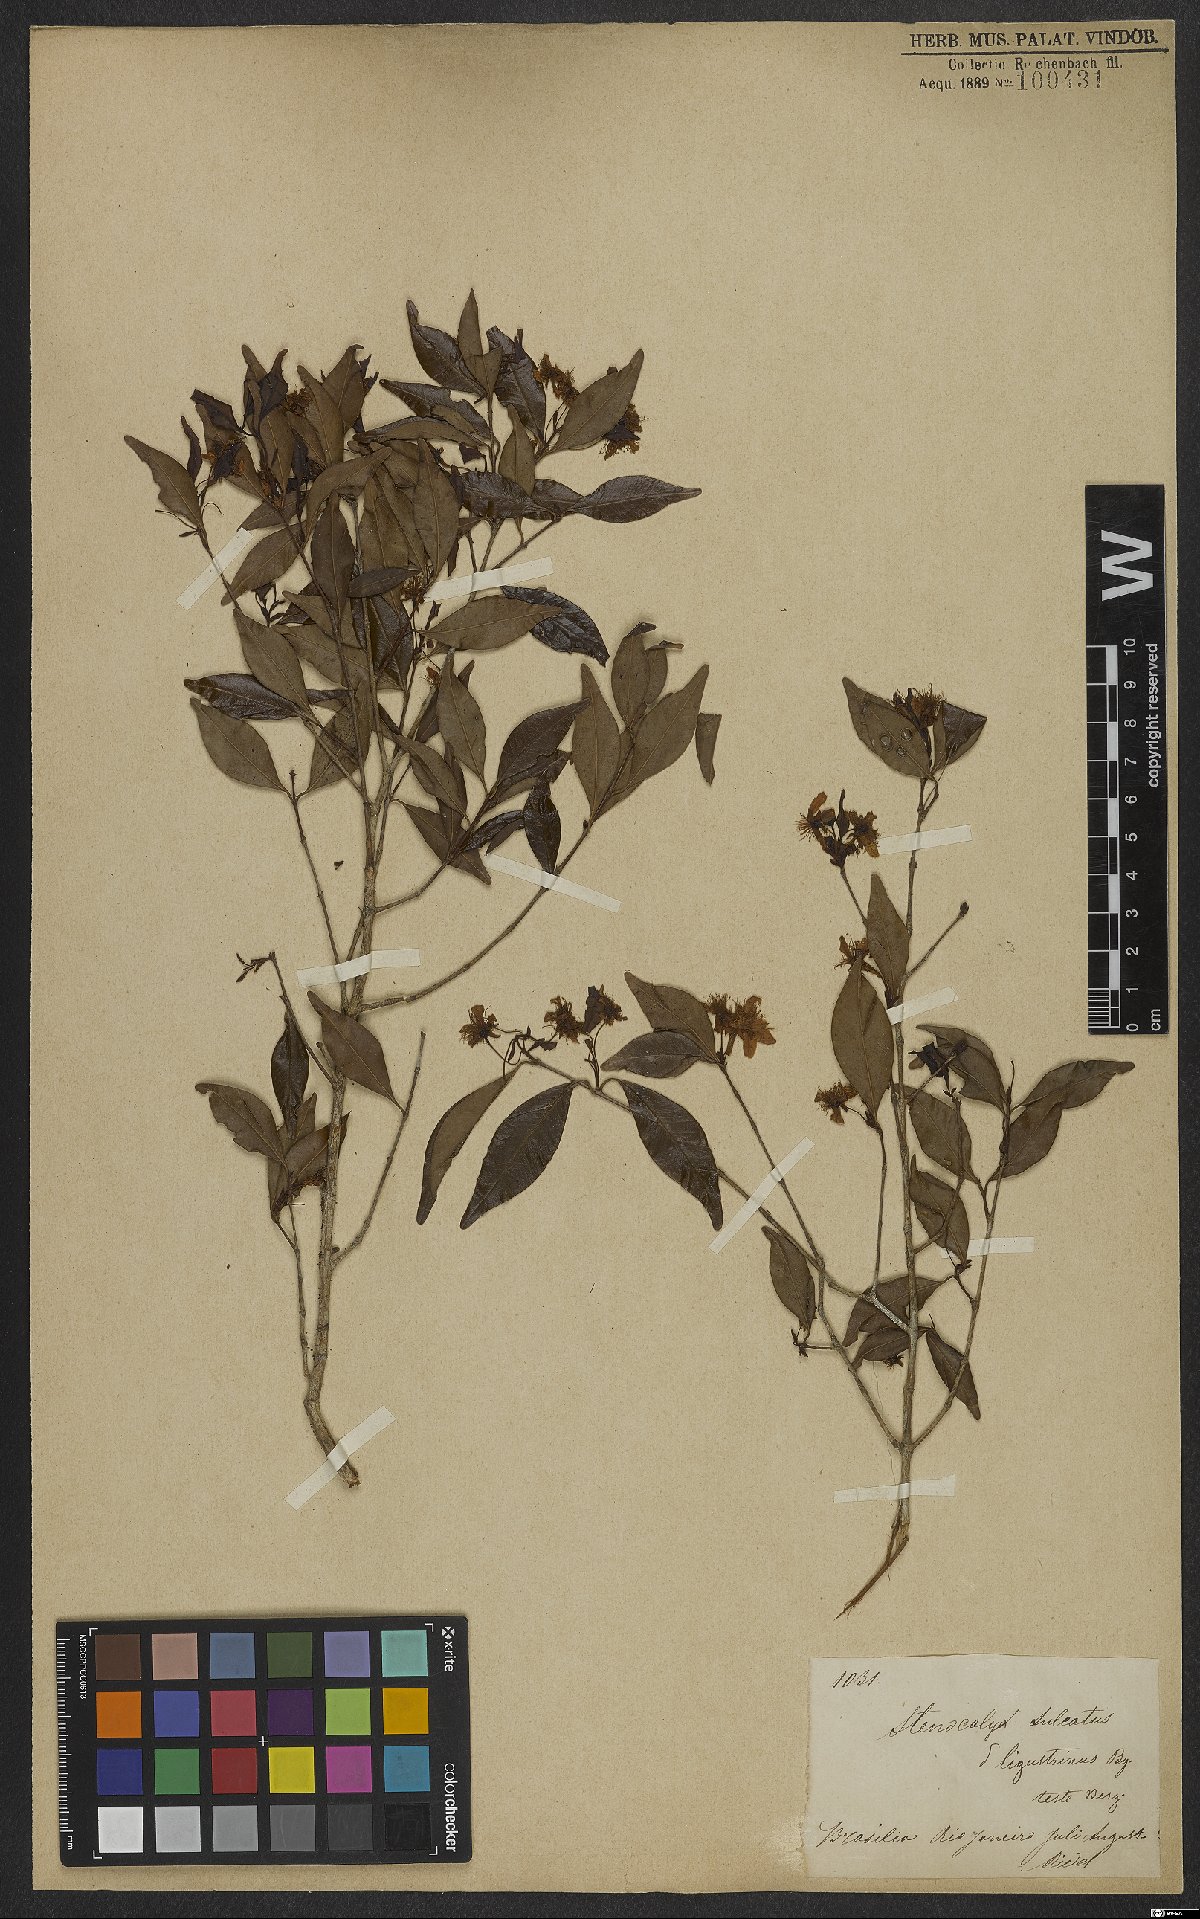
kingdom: Plantae
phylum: Tracheophyta
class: Magnoliopsida
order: Myrtales
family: Myrtaceae
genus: Eugenia
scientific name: Eugenia sulcata
